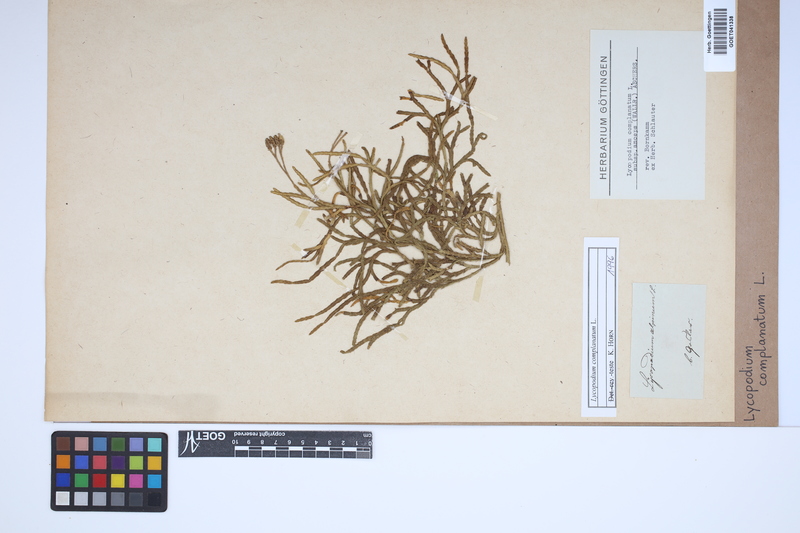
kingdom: Plantae
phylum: Tracheophyta
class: Lycopodiopsida
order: Lycopodiales
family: Lycopodiaceae
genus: Diphasiastrum
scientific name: Diphasiastrum complanatum
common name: Northern running-pine
